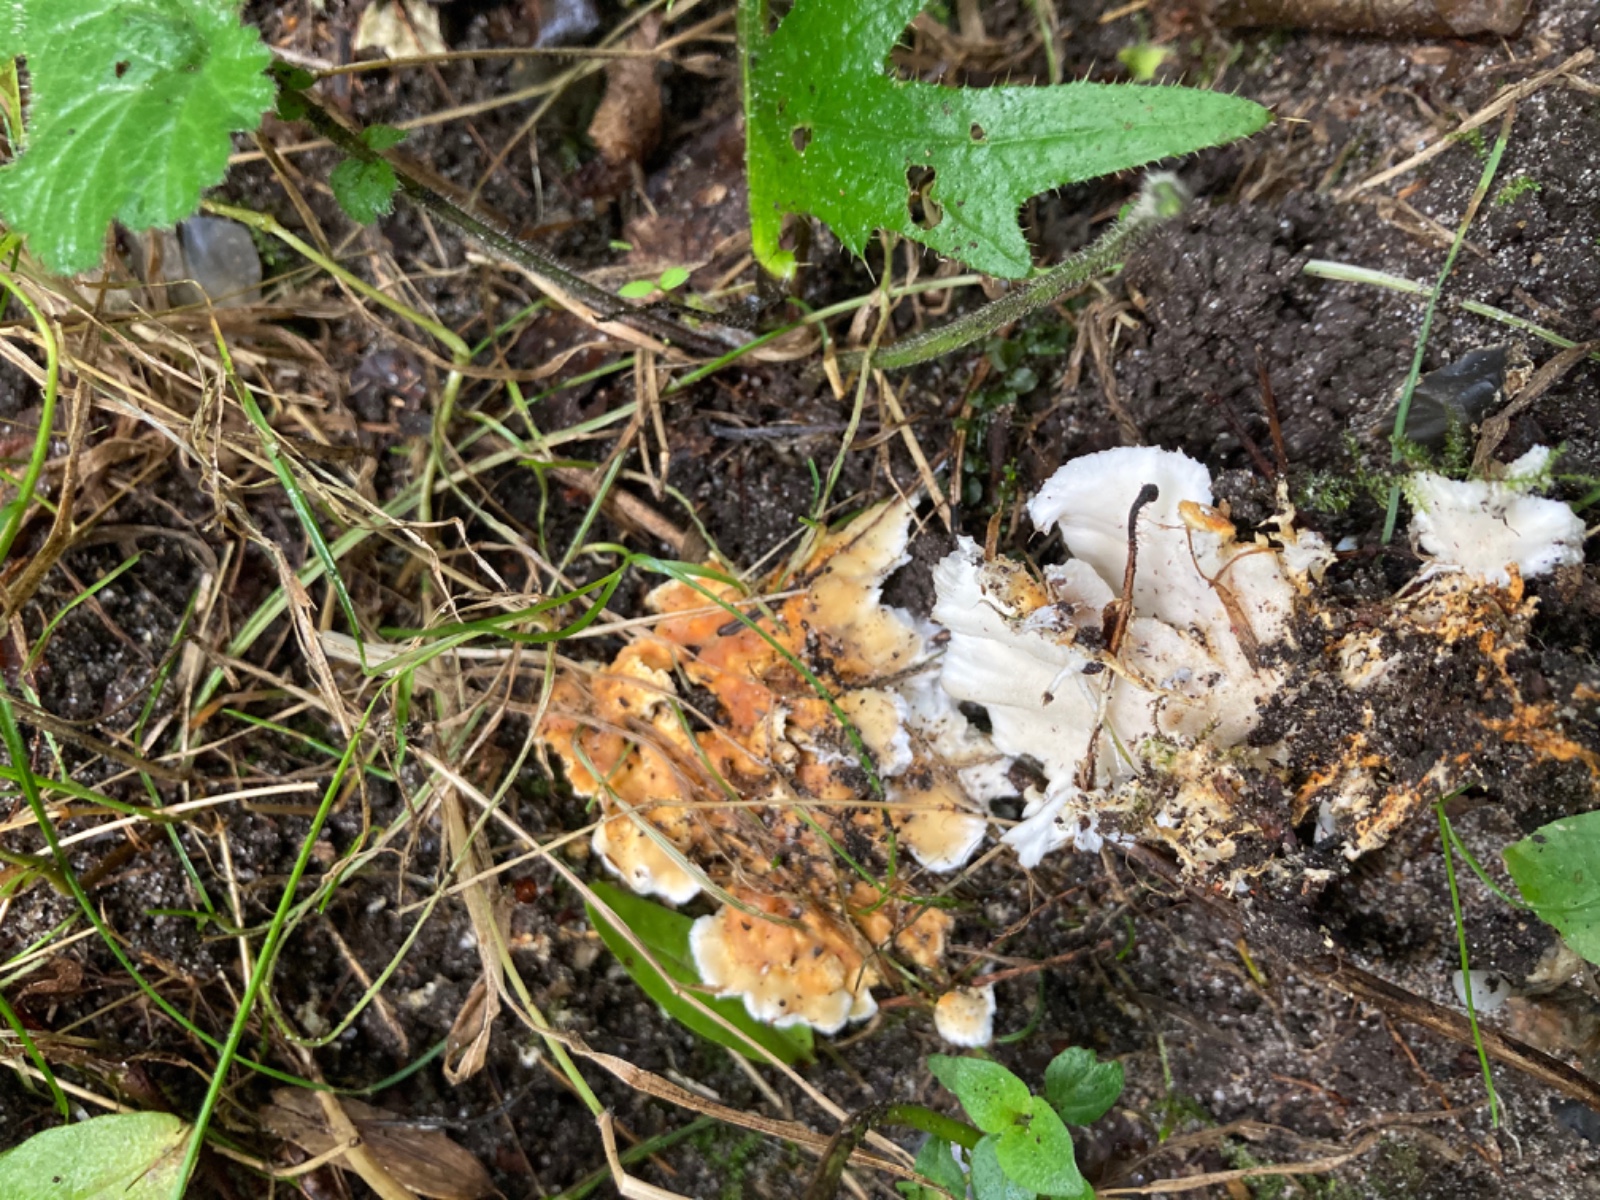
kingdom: Fungi
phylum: Basidiomycota
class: Agaricomycetes
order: Polyporales
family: Steccherinaceae
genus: Loweomyces
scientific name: Loweomyces wynneae
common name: krybende blødporesvamp
